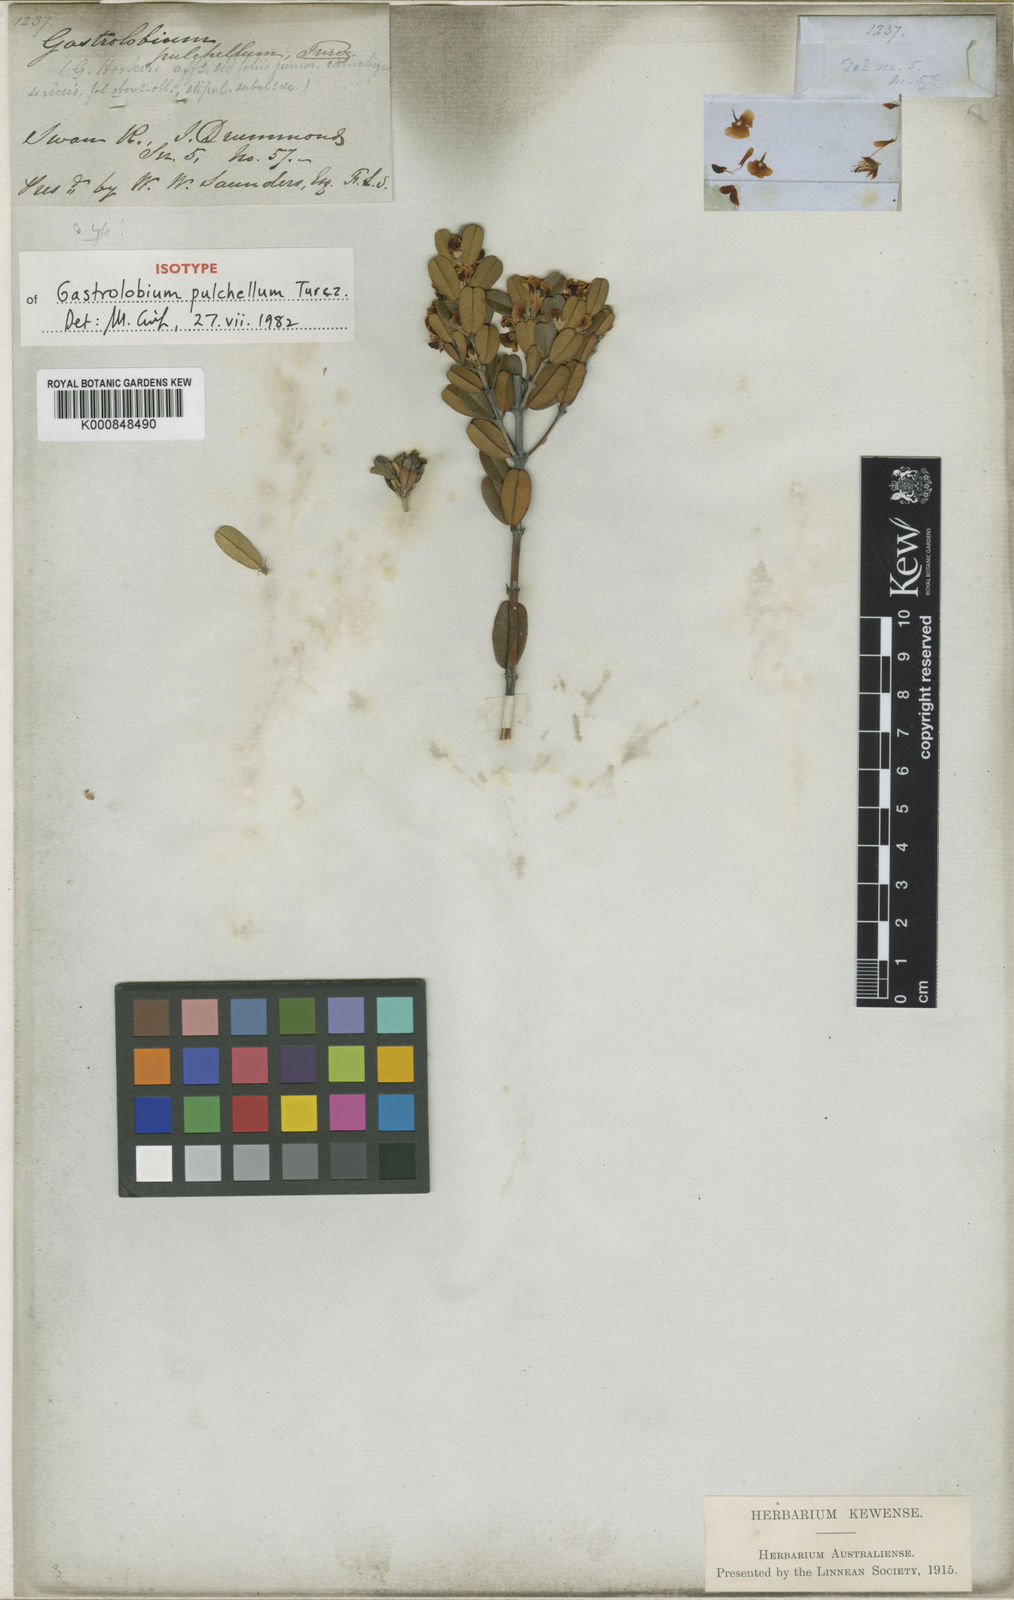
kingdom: Plantae
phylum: Tracheophyta
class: Magnoliopsida
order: Fabales
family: Fabaceae
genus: Gastrolobium
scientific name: Gastrolobium pulchellum
